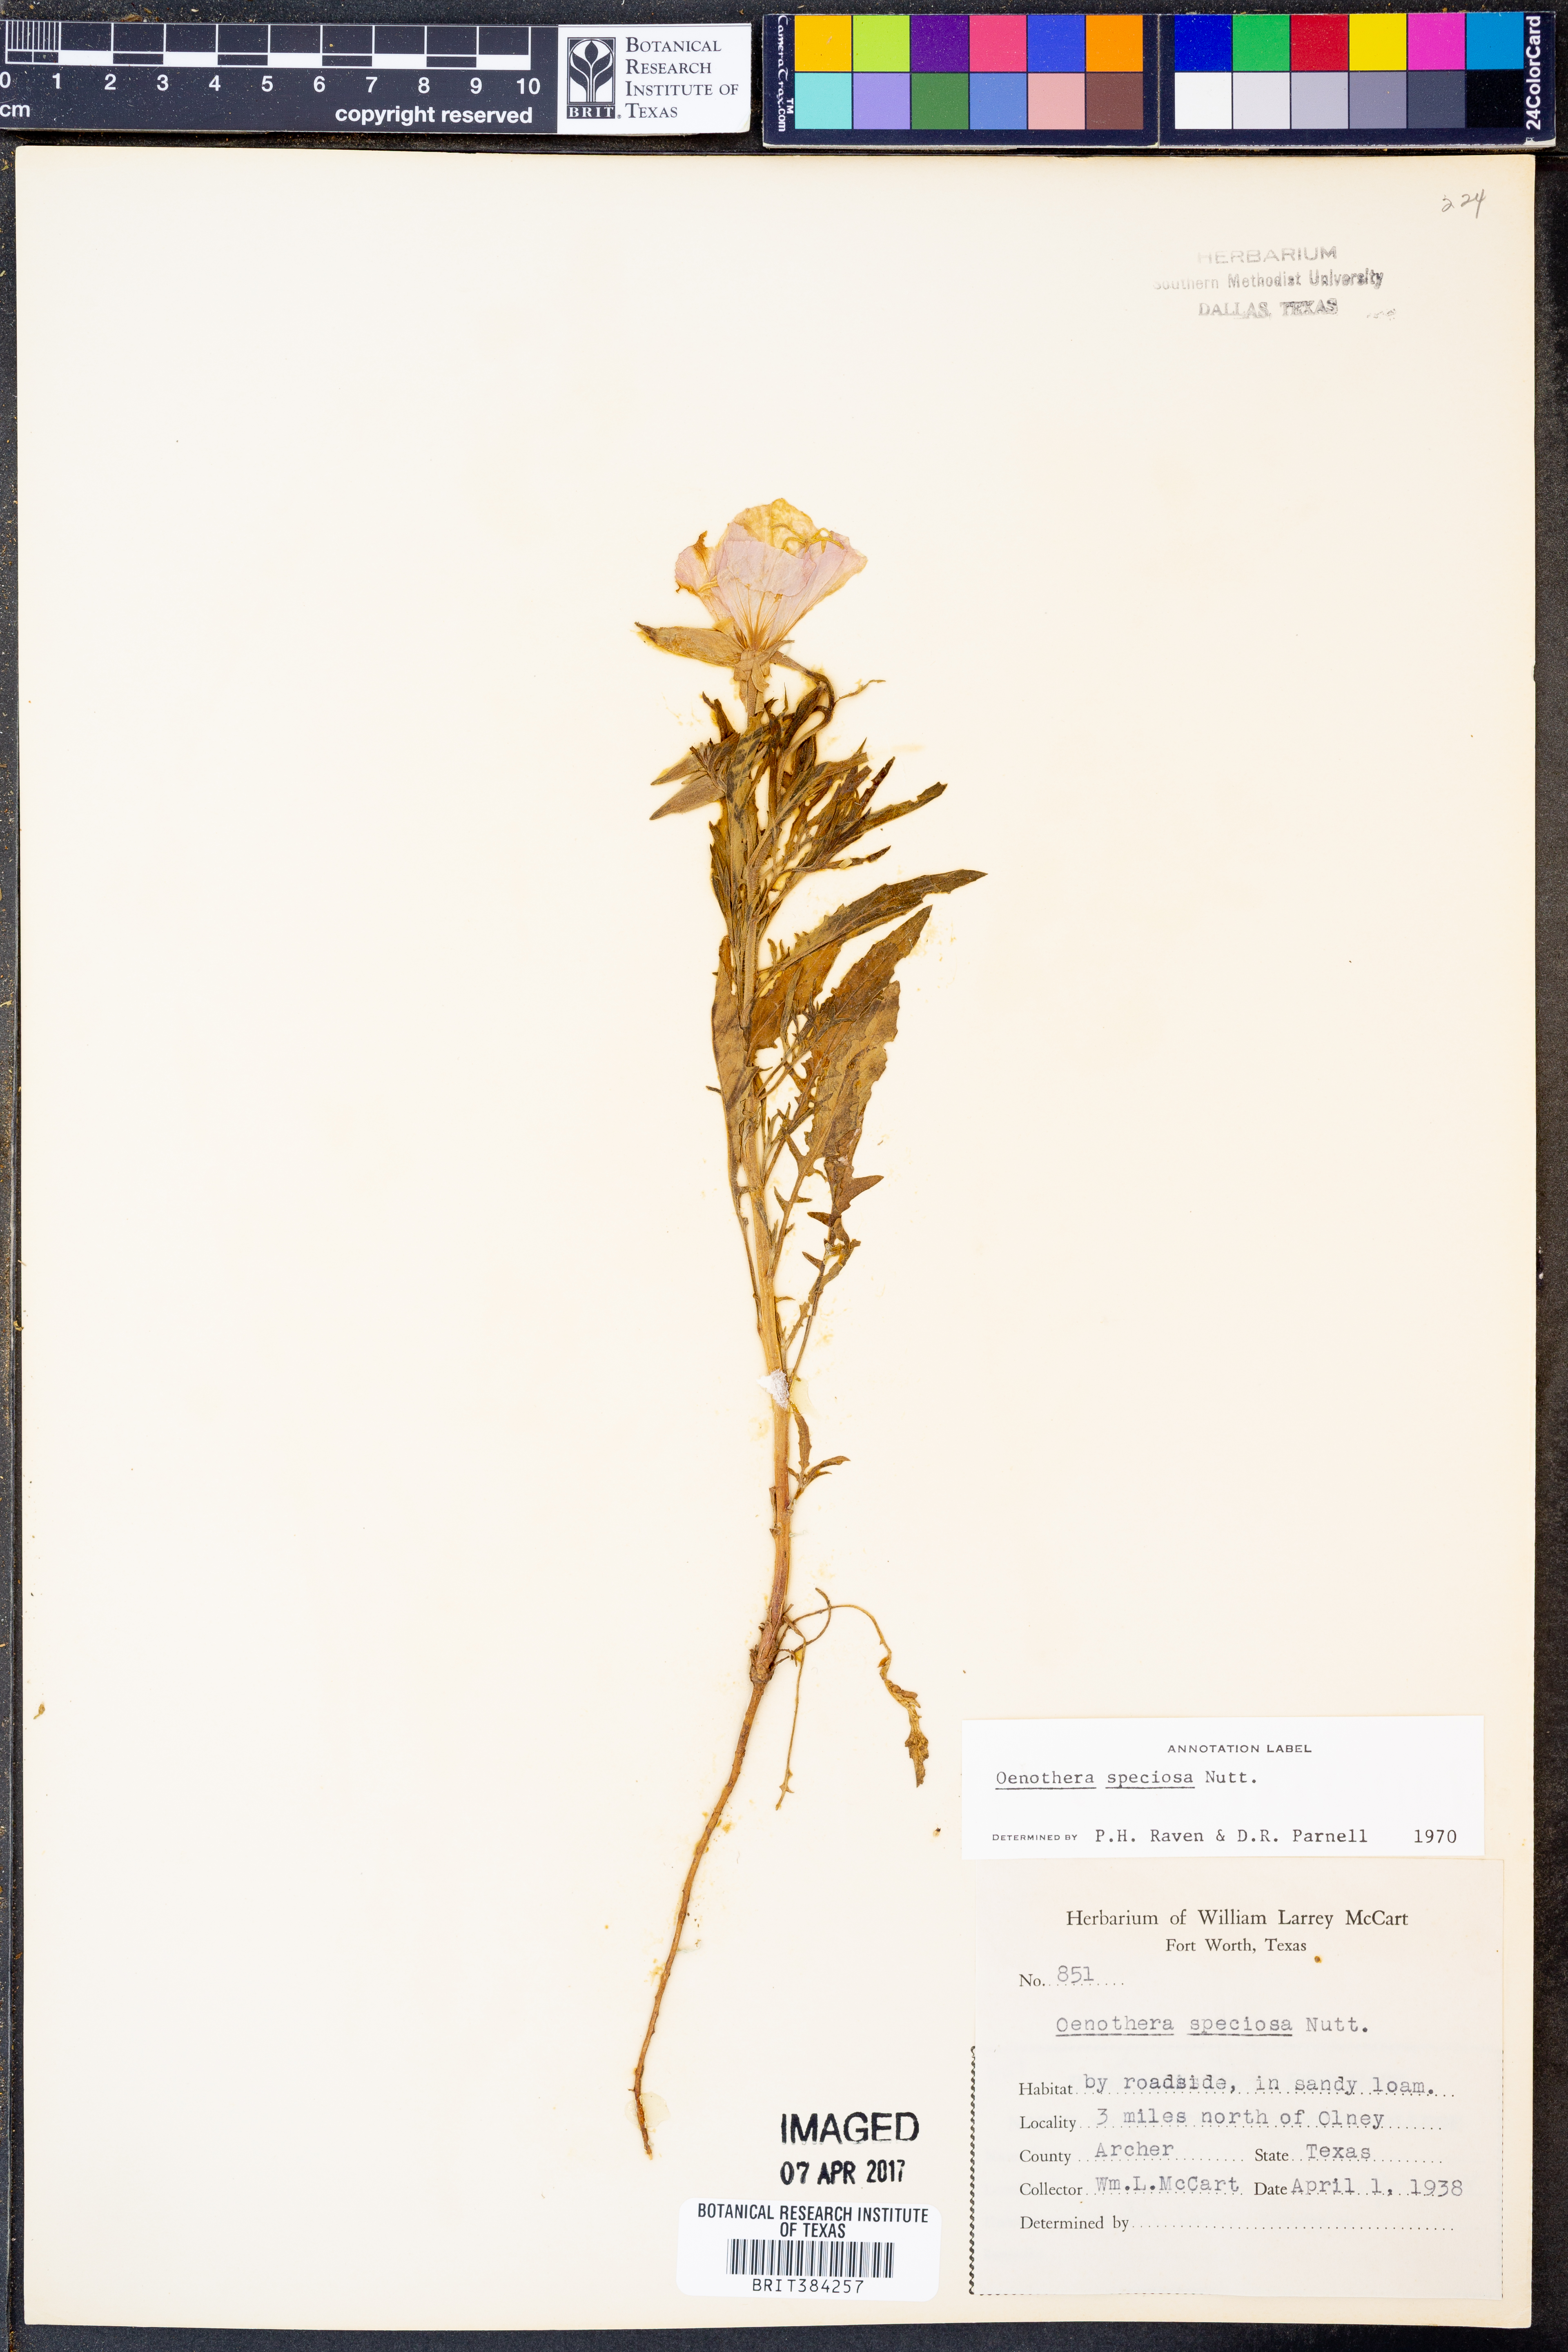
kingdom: Plantae
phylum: Tracheophyta
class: Magnoliopsida
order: Myrtales
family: Onagraceae
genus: Oenothera
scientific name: Oenothera speciosa
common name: White evening-primrose
